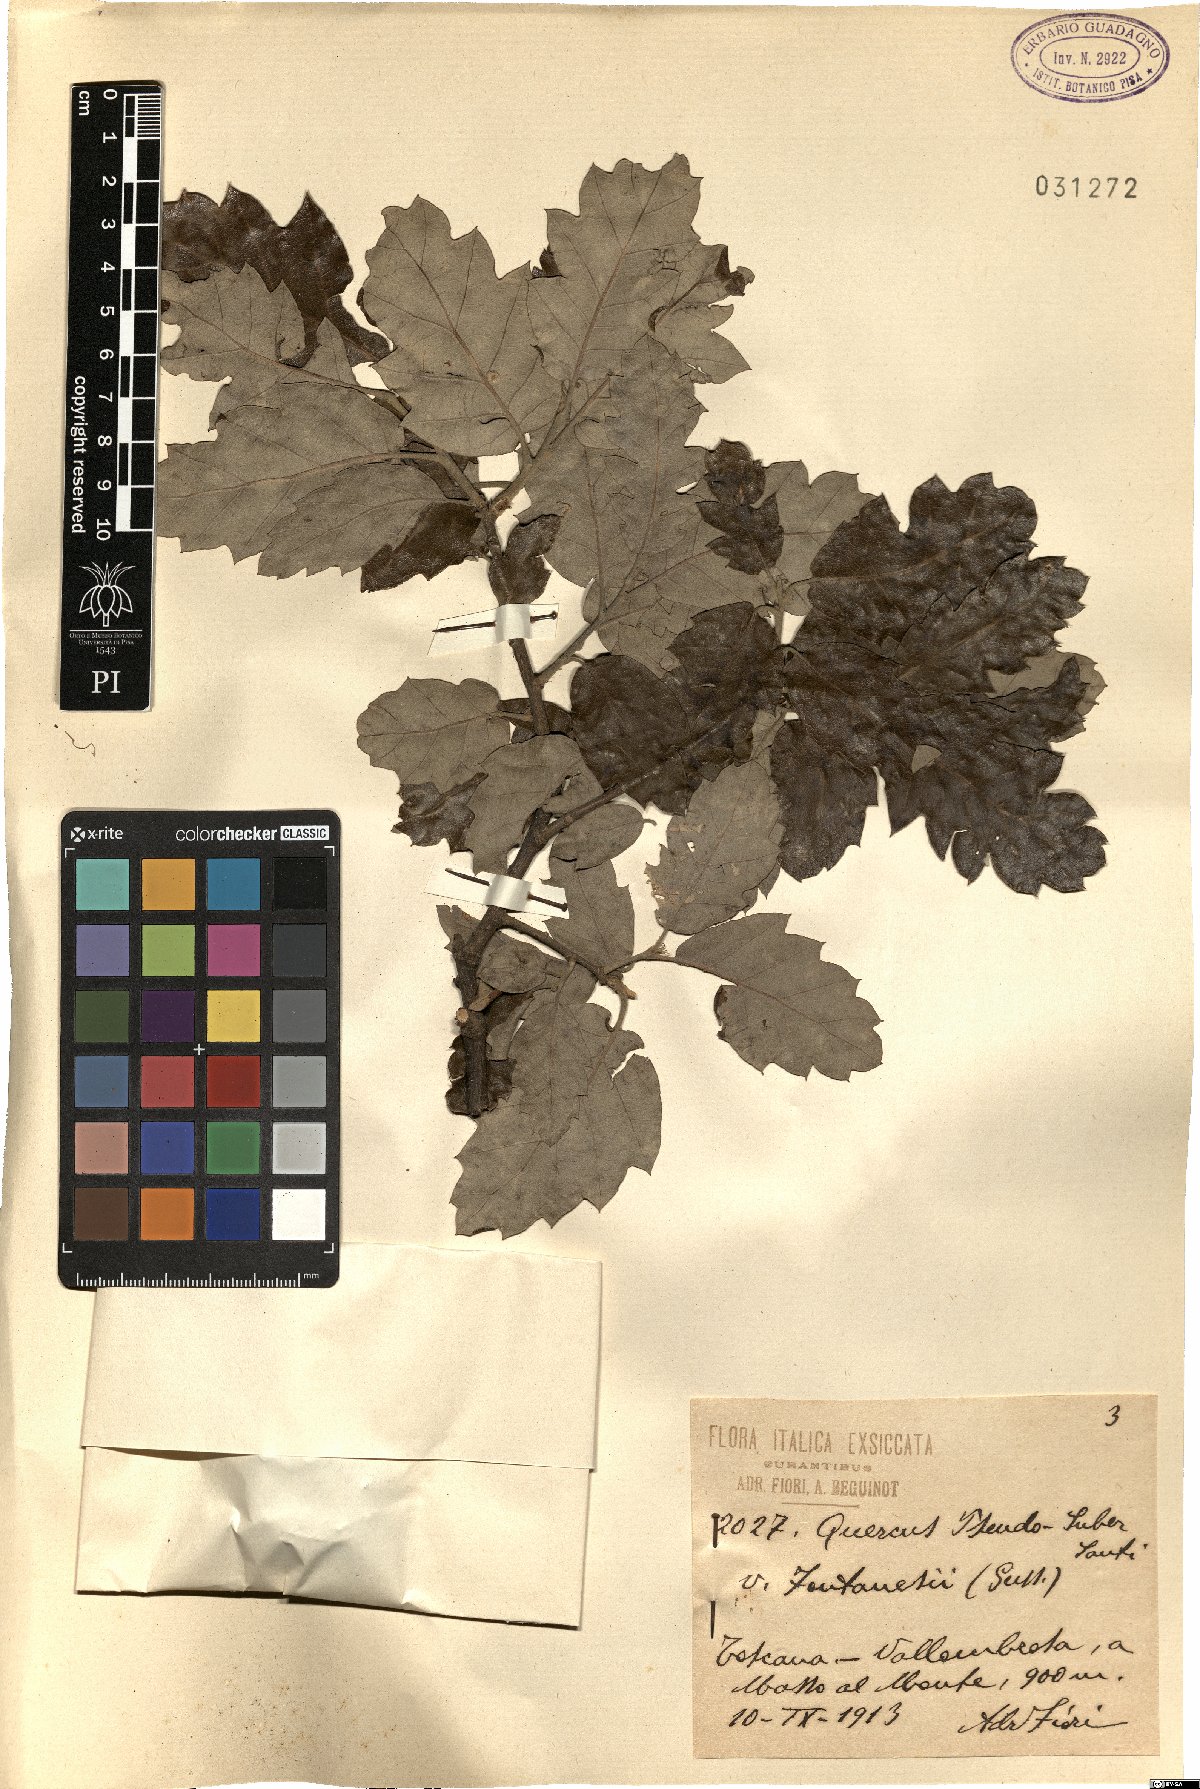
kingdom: Plantae
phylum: Tracheophyta
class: Magnoliopsida
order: Fagales
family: Fagaceae
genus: Quercus
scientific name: Quercus crenata
